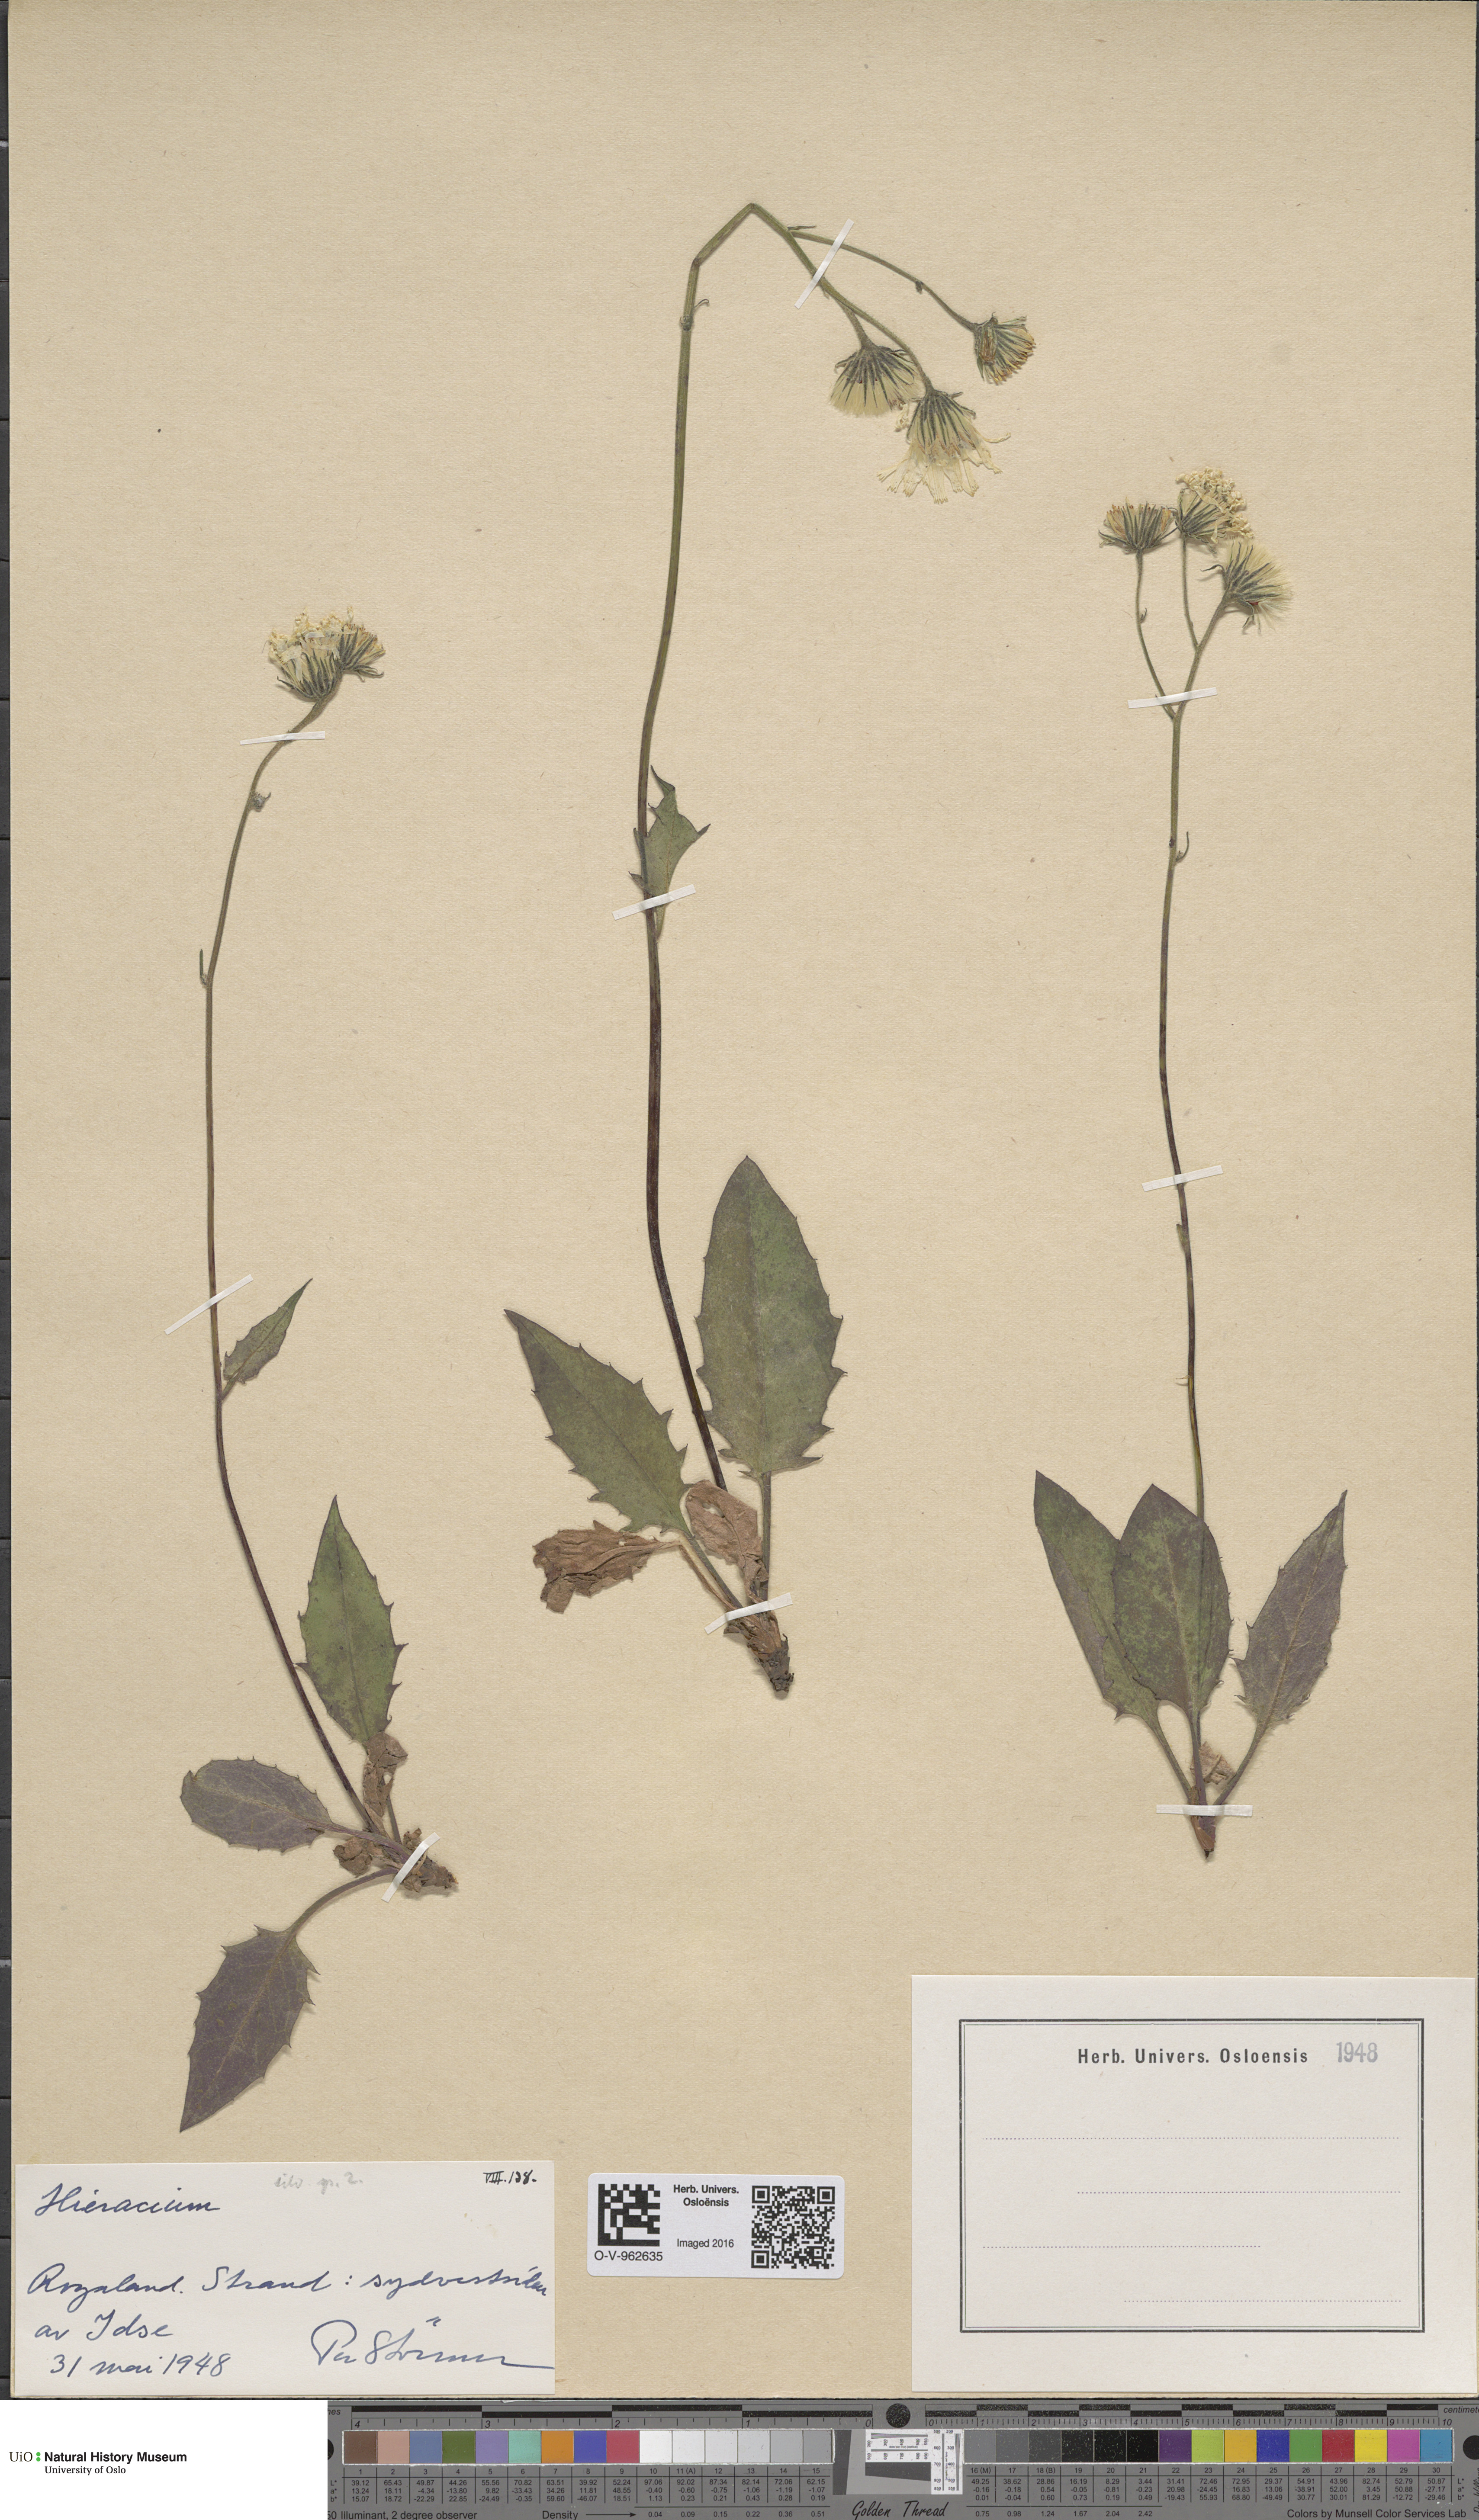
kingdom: Plantae
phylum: Tracheophyta
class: Magnoliopsida
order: Asterales
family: Asteraceae
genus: Hieracium
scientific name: Hieracium
